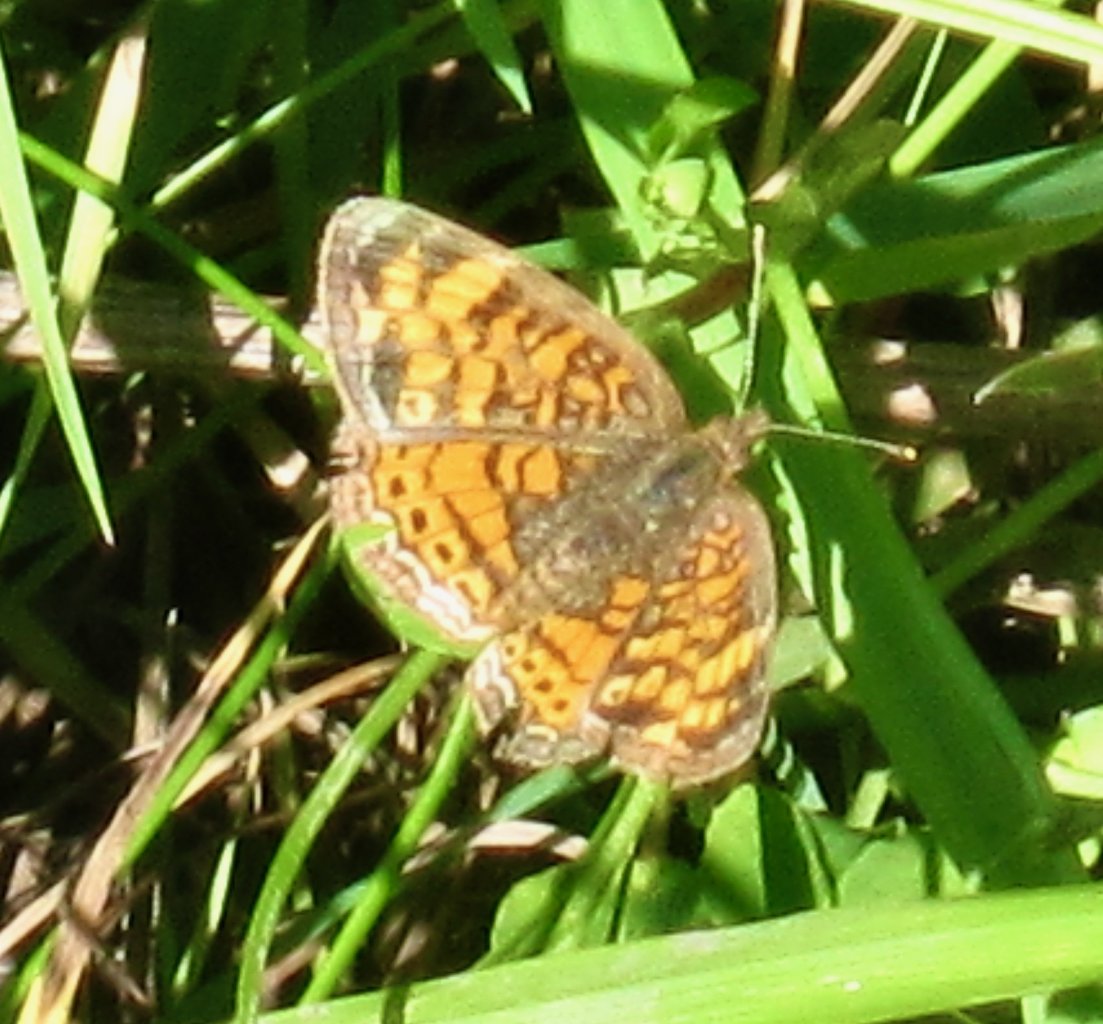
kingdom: Animalia
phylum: Arthropoda
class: Insecta
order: Lepidoptera
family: Nymphalidae
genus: Phyciodes
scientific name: Phyciodes tharos
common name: Pearl Crescent
